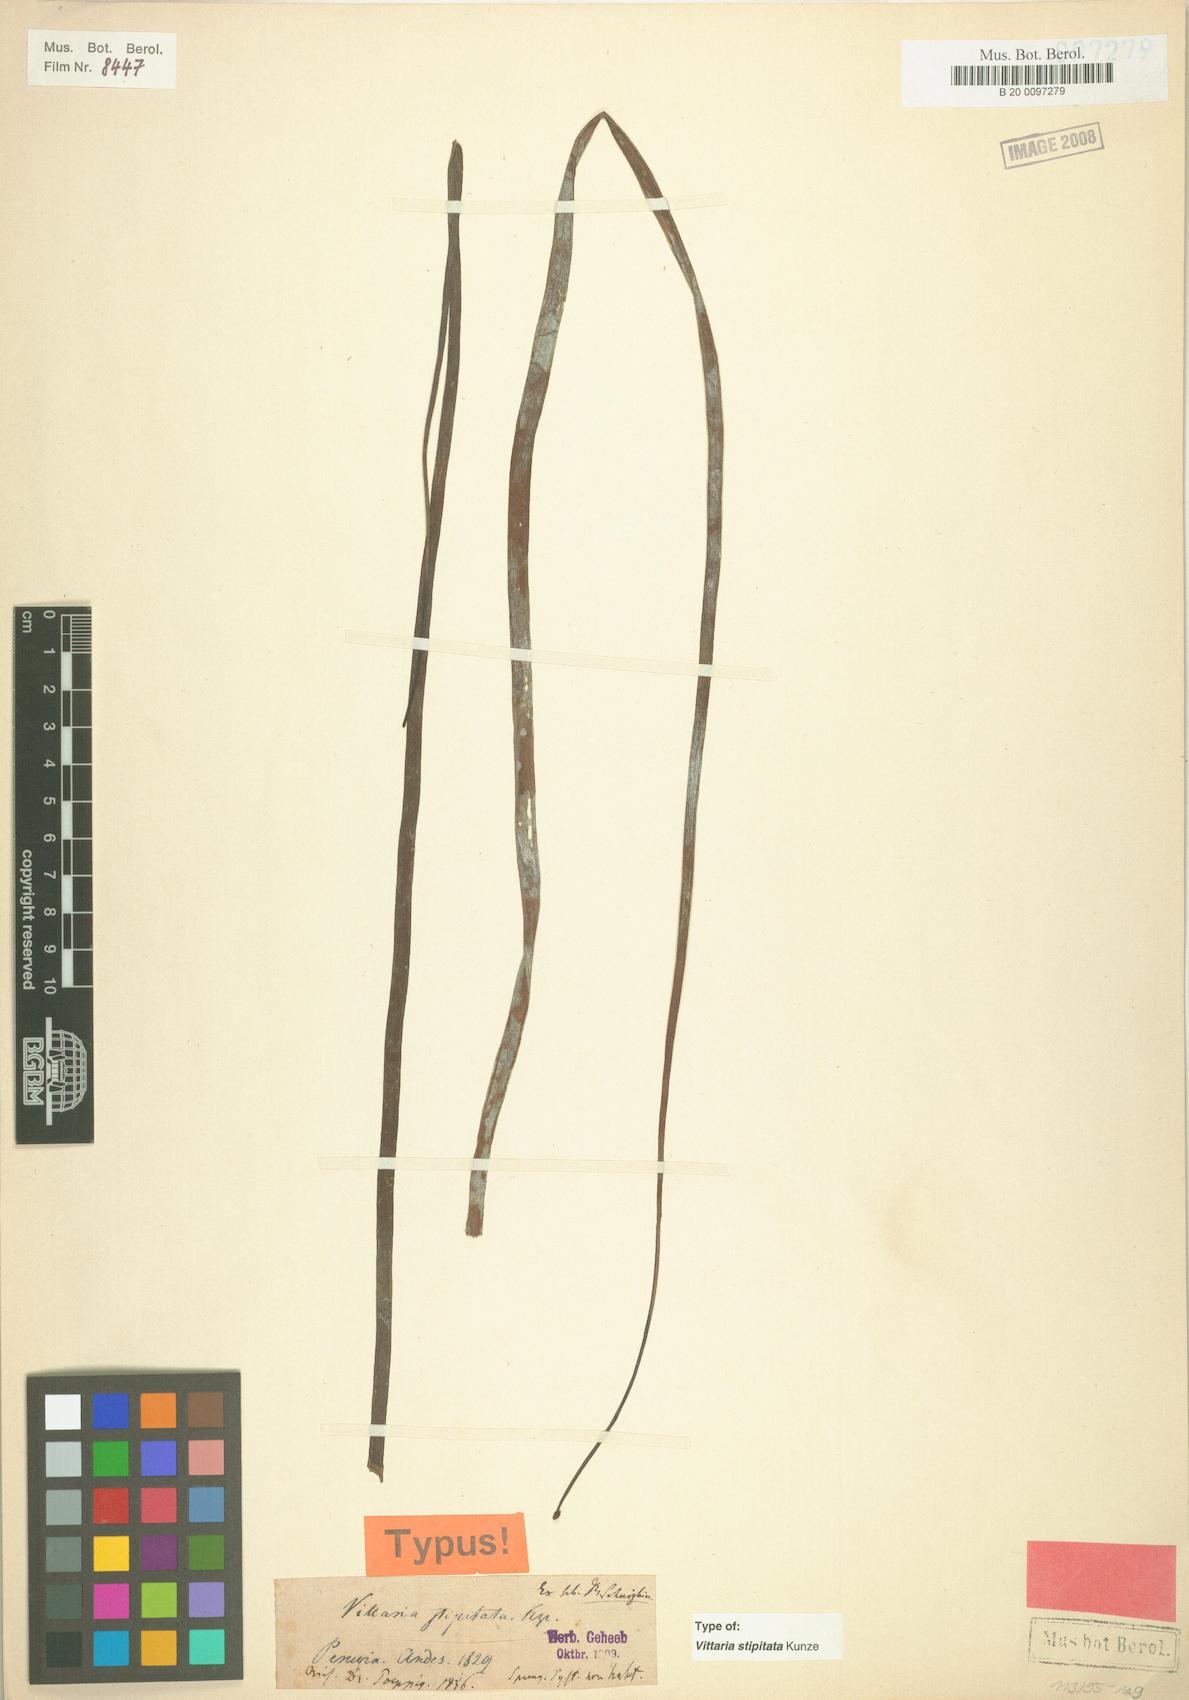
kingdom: Plantae
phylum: Tracheophyta
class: Polypodiopsida
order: Polypodiales
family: Pteridaceae
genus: Radiovittaria
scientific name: Radiovittaria stipitata
